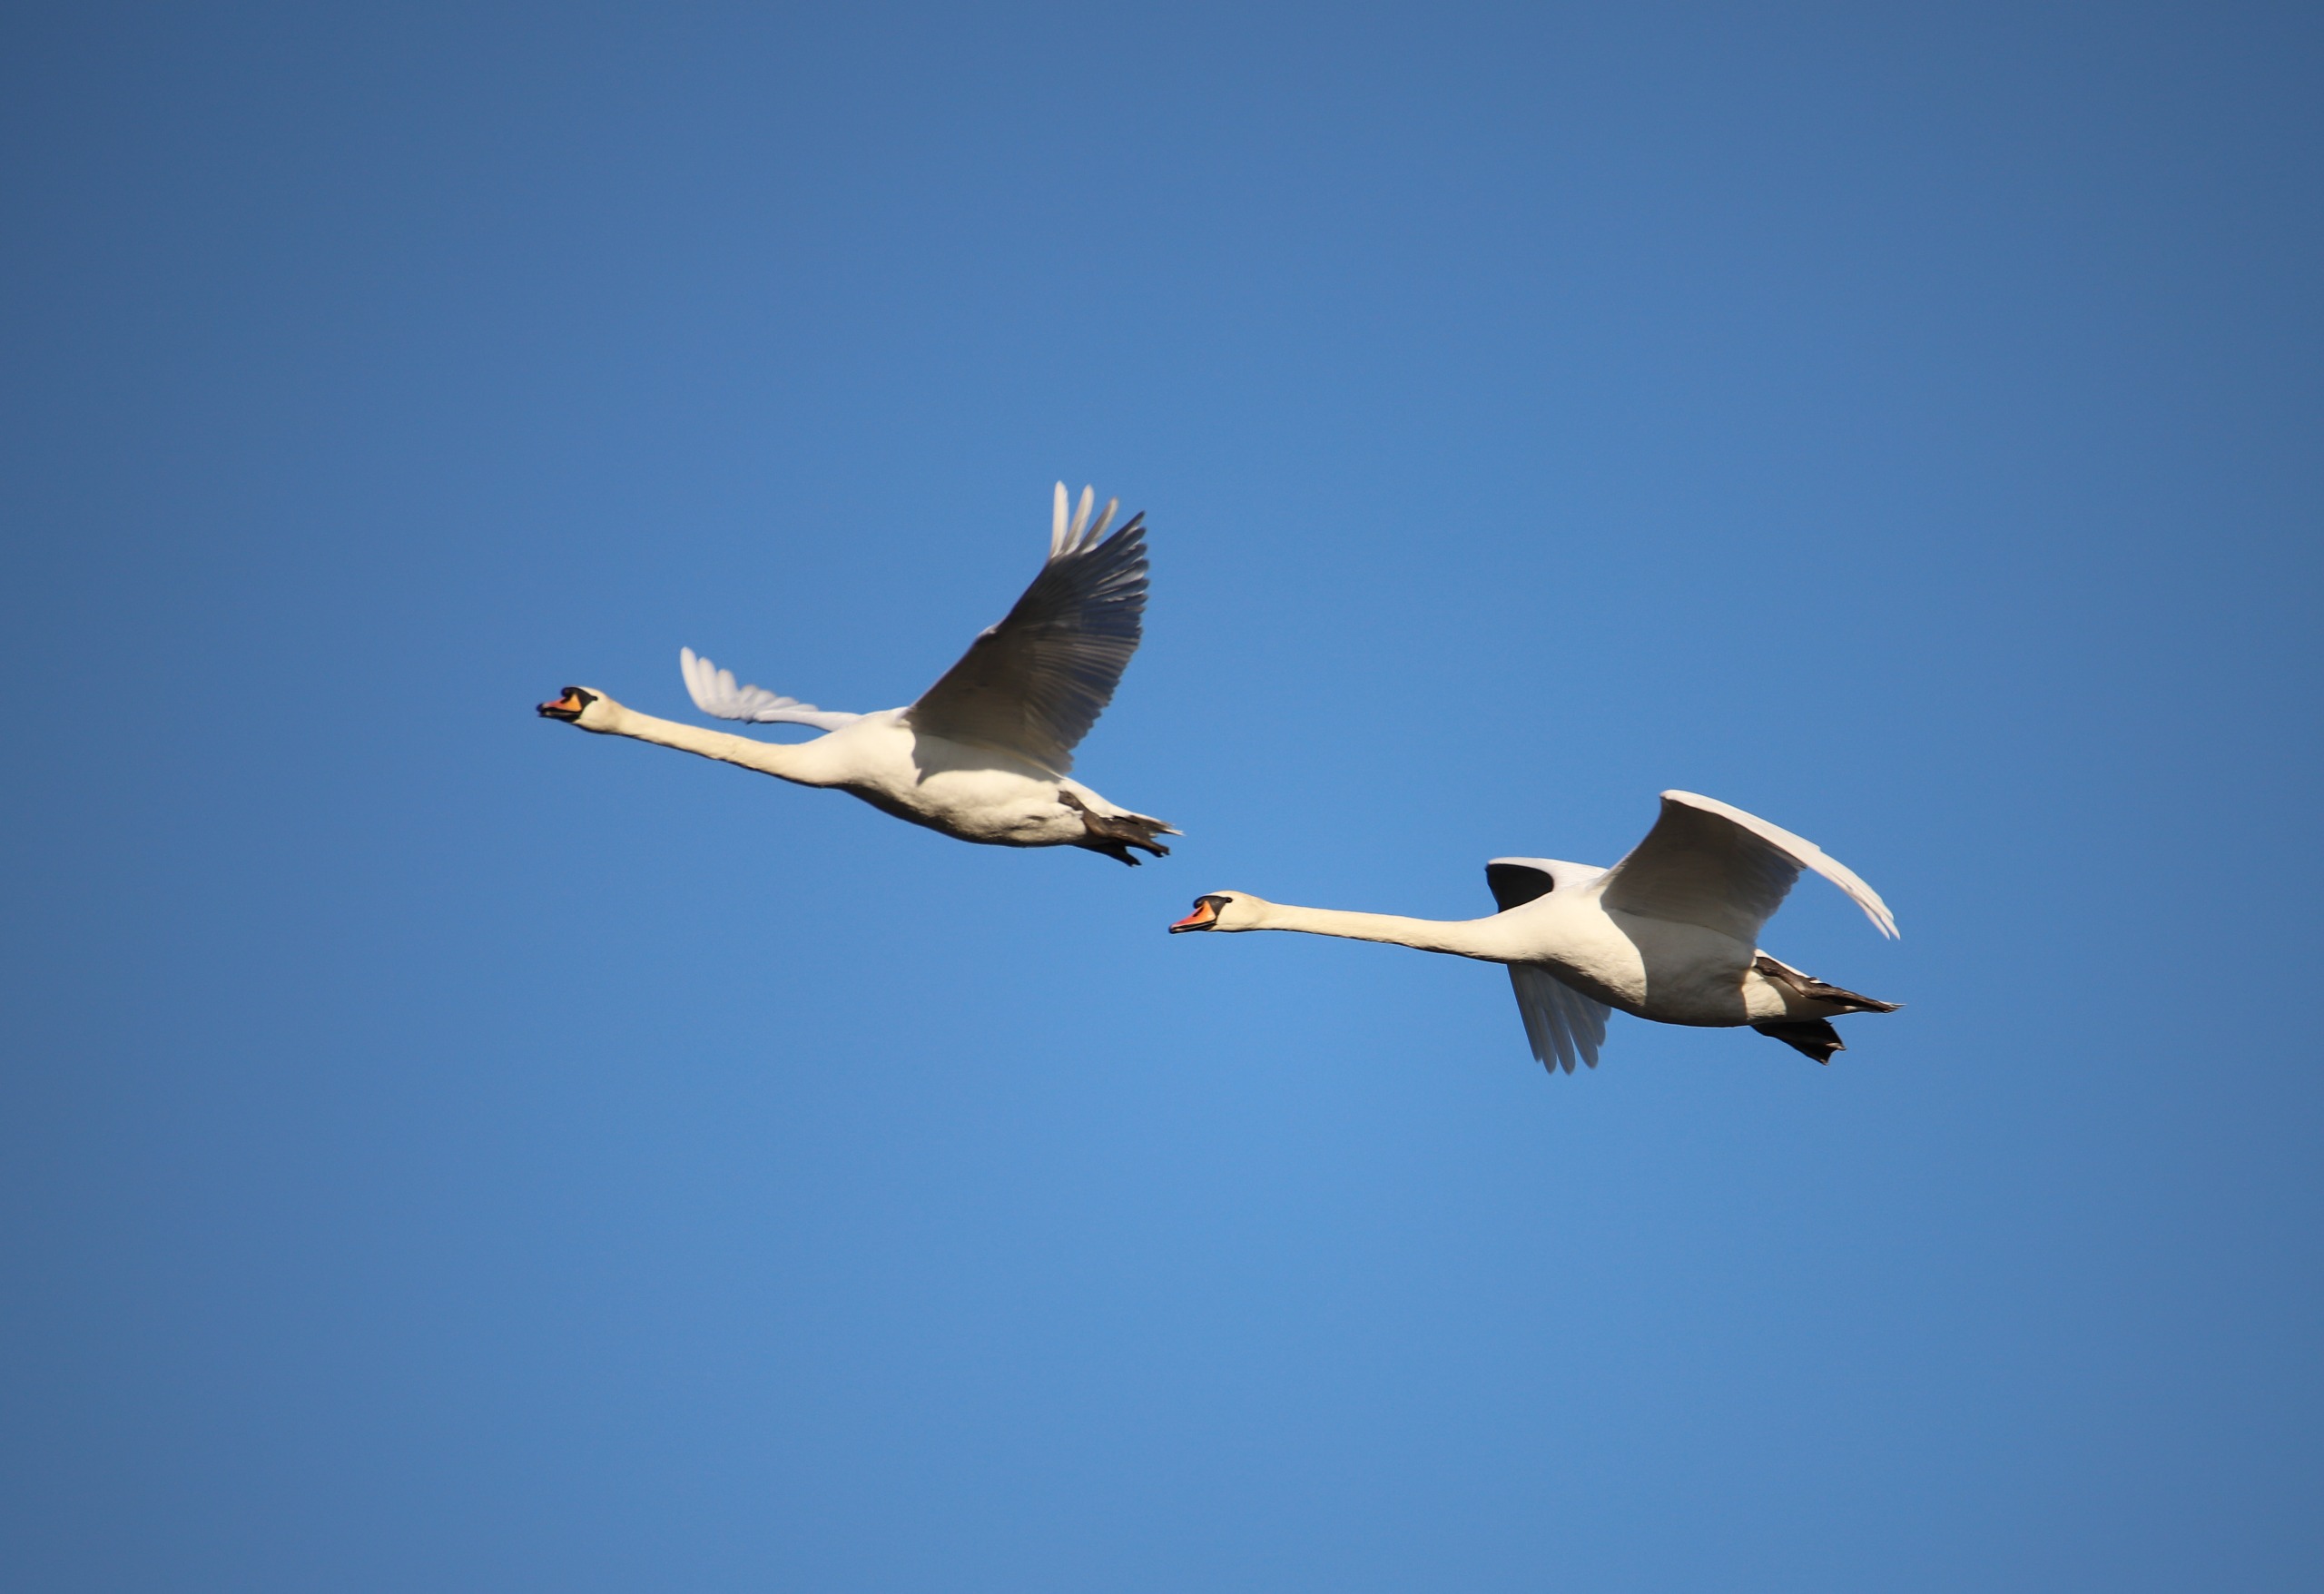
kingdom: Animalia
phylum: Chordata
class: Aves
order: Anseriformes
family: Anatidae
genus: Cygnus
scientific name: Cygnus olor
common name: Knopsvane
